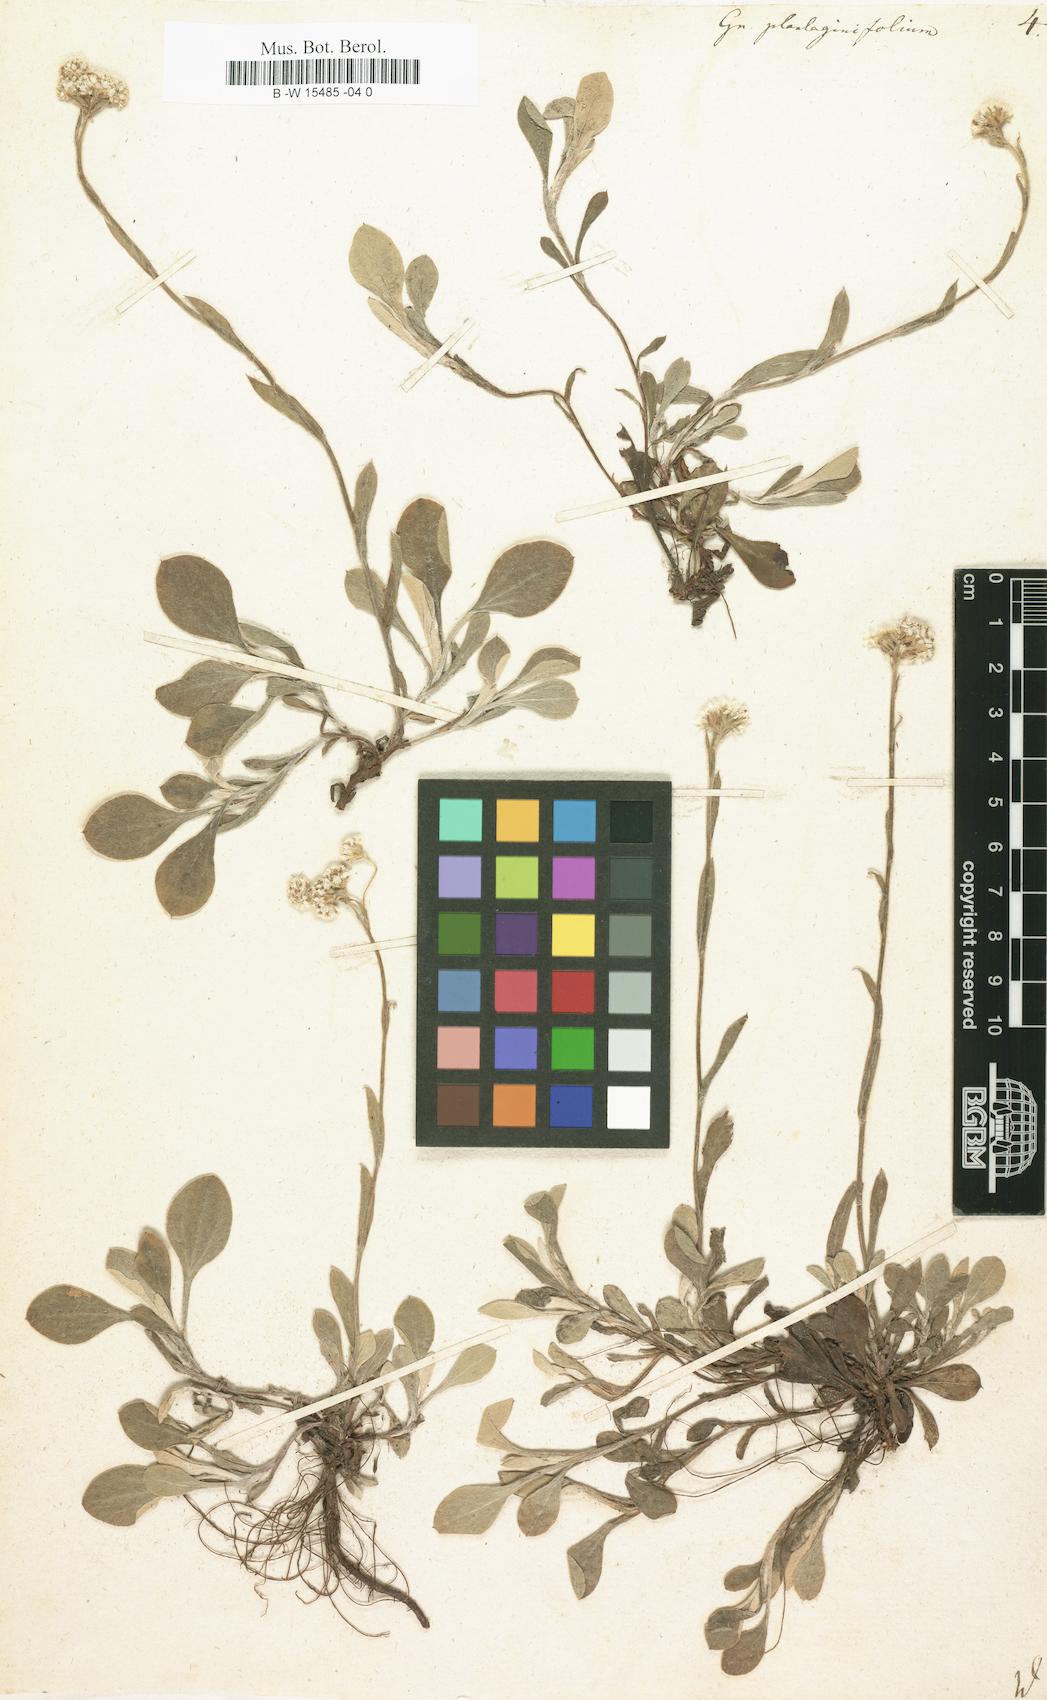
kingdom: Plantae
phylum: Tracheophyta
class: Magnoliopsida
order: Asterales
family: Asteraceae
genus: Antennaria
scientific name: Antennaria plantaginifolia
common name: Plantain-leaved pussytoes
